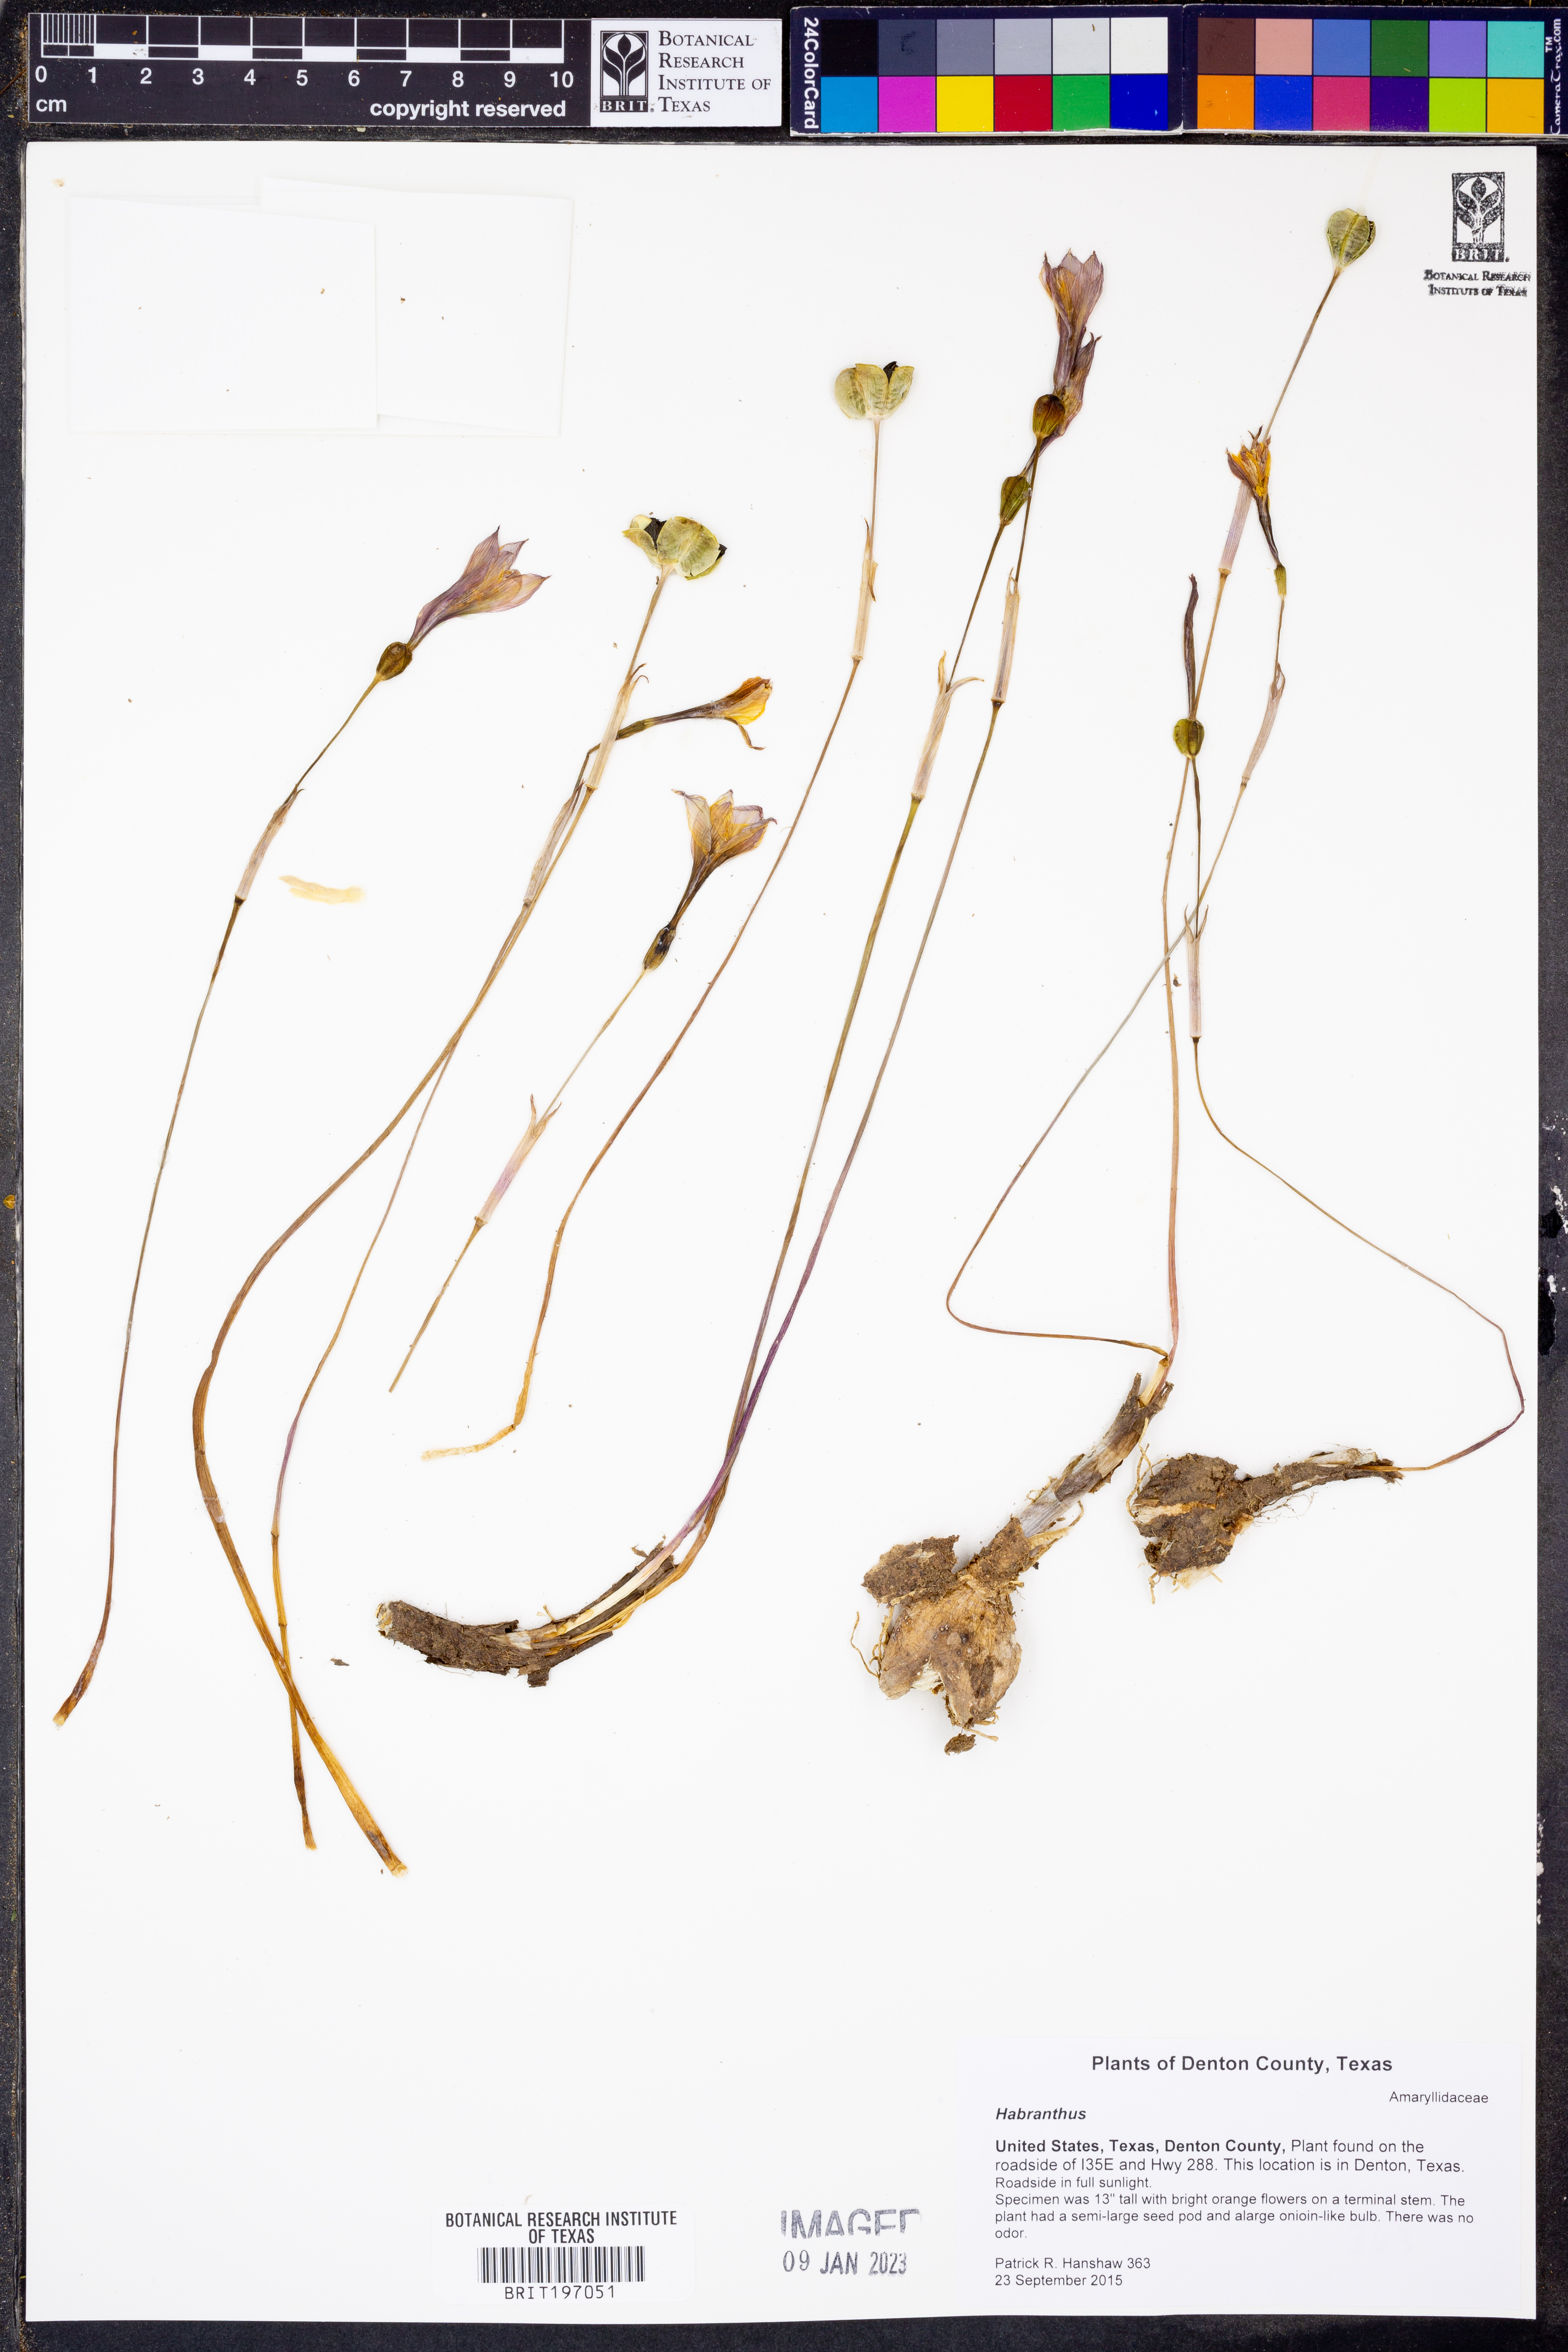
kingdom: Plantae
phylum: Tracheophyta
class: Liliopsida
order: Asparagales
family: Amaryllidaceae
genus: Zephyranthes
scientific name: Zephyranthes
